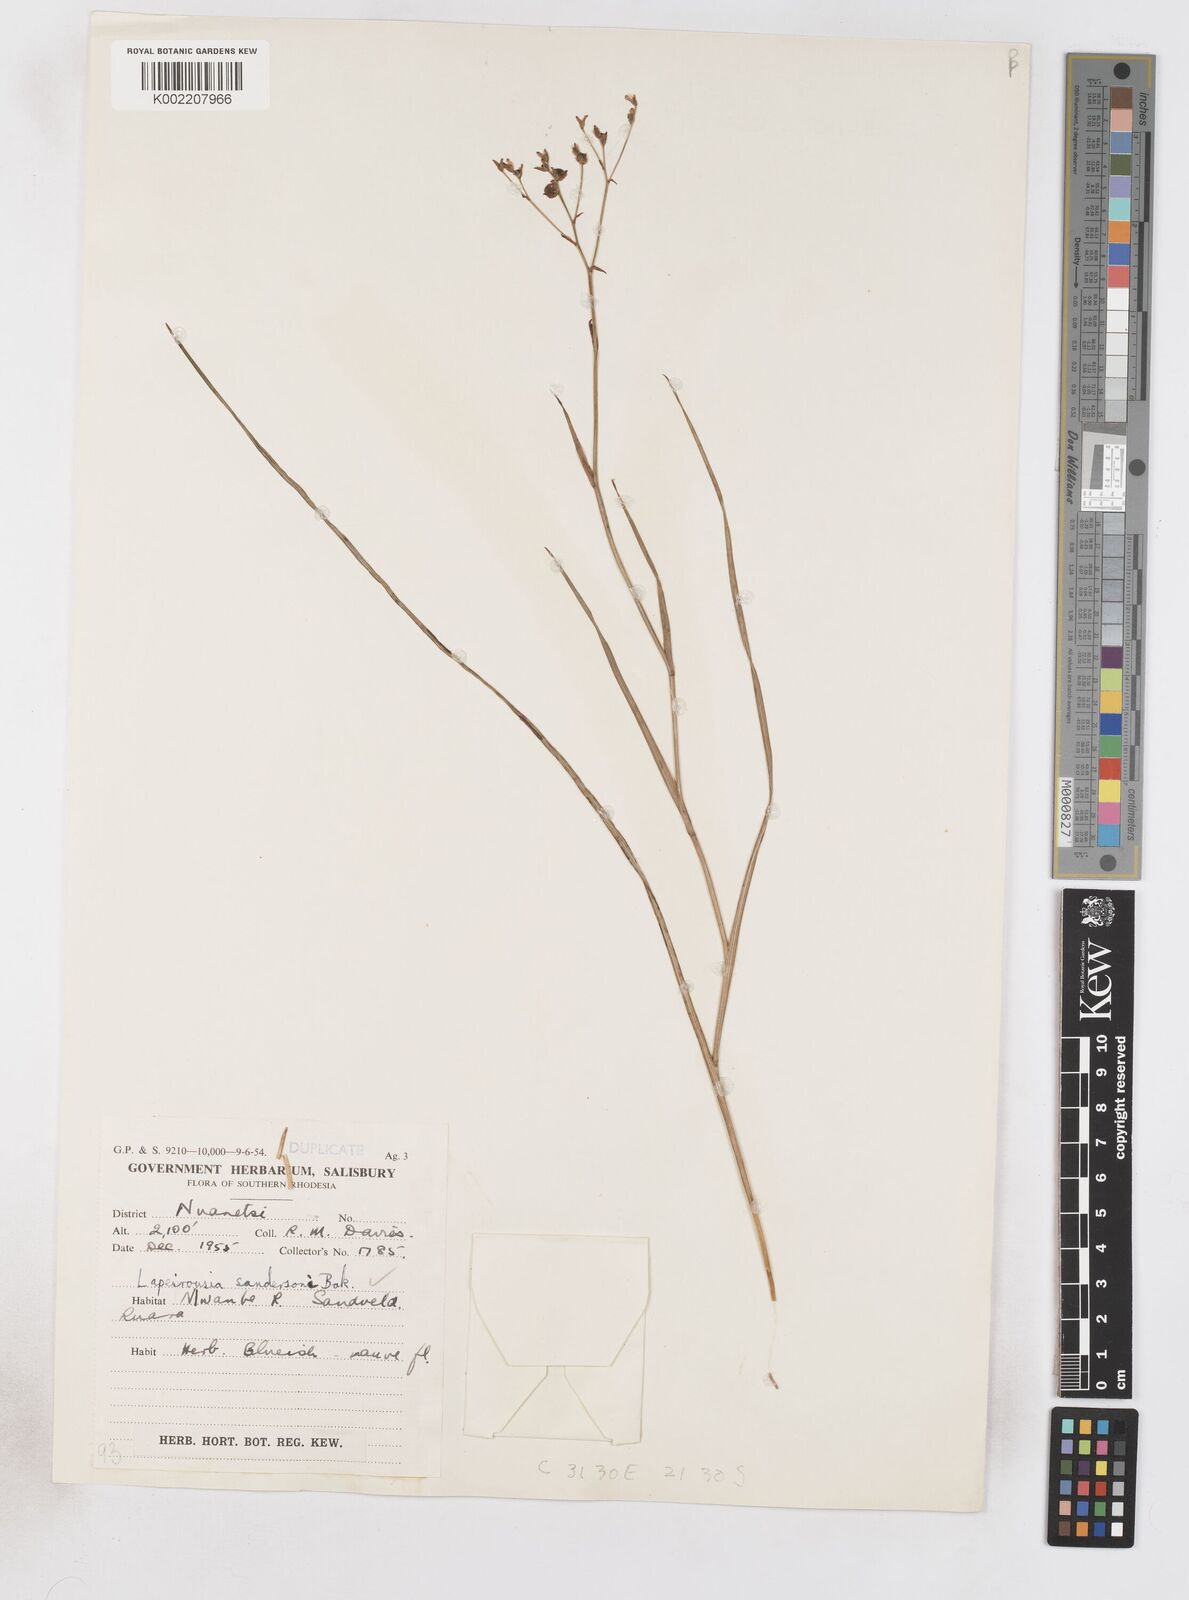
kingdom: Plantae
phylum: Tracheophyta
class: Liliopsida
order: Asparagales
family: Iridaceae
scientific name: Iridaceae
